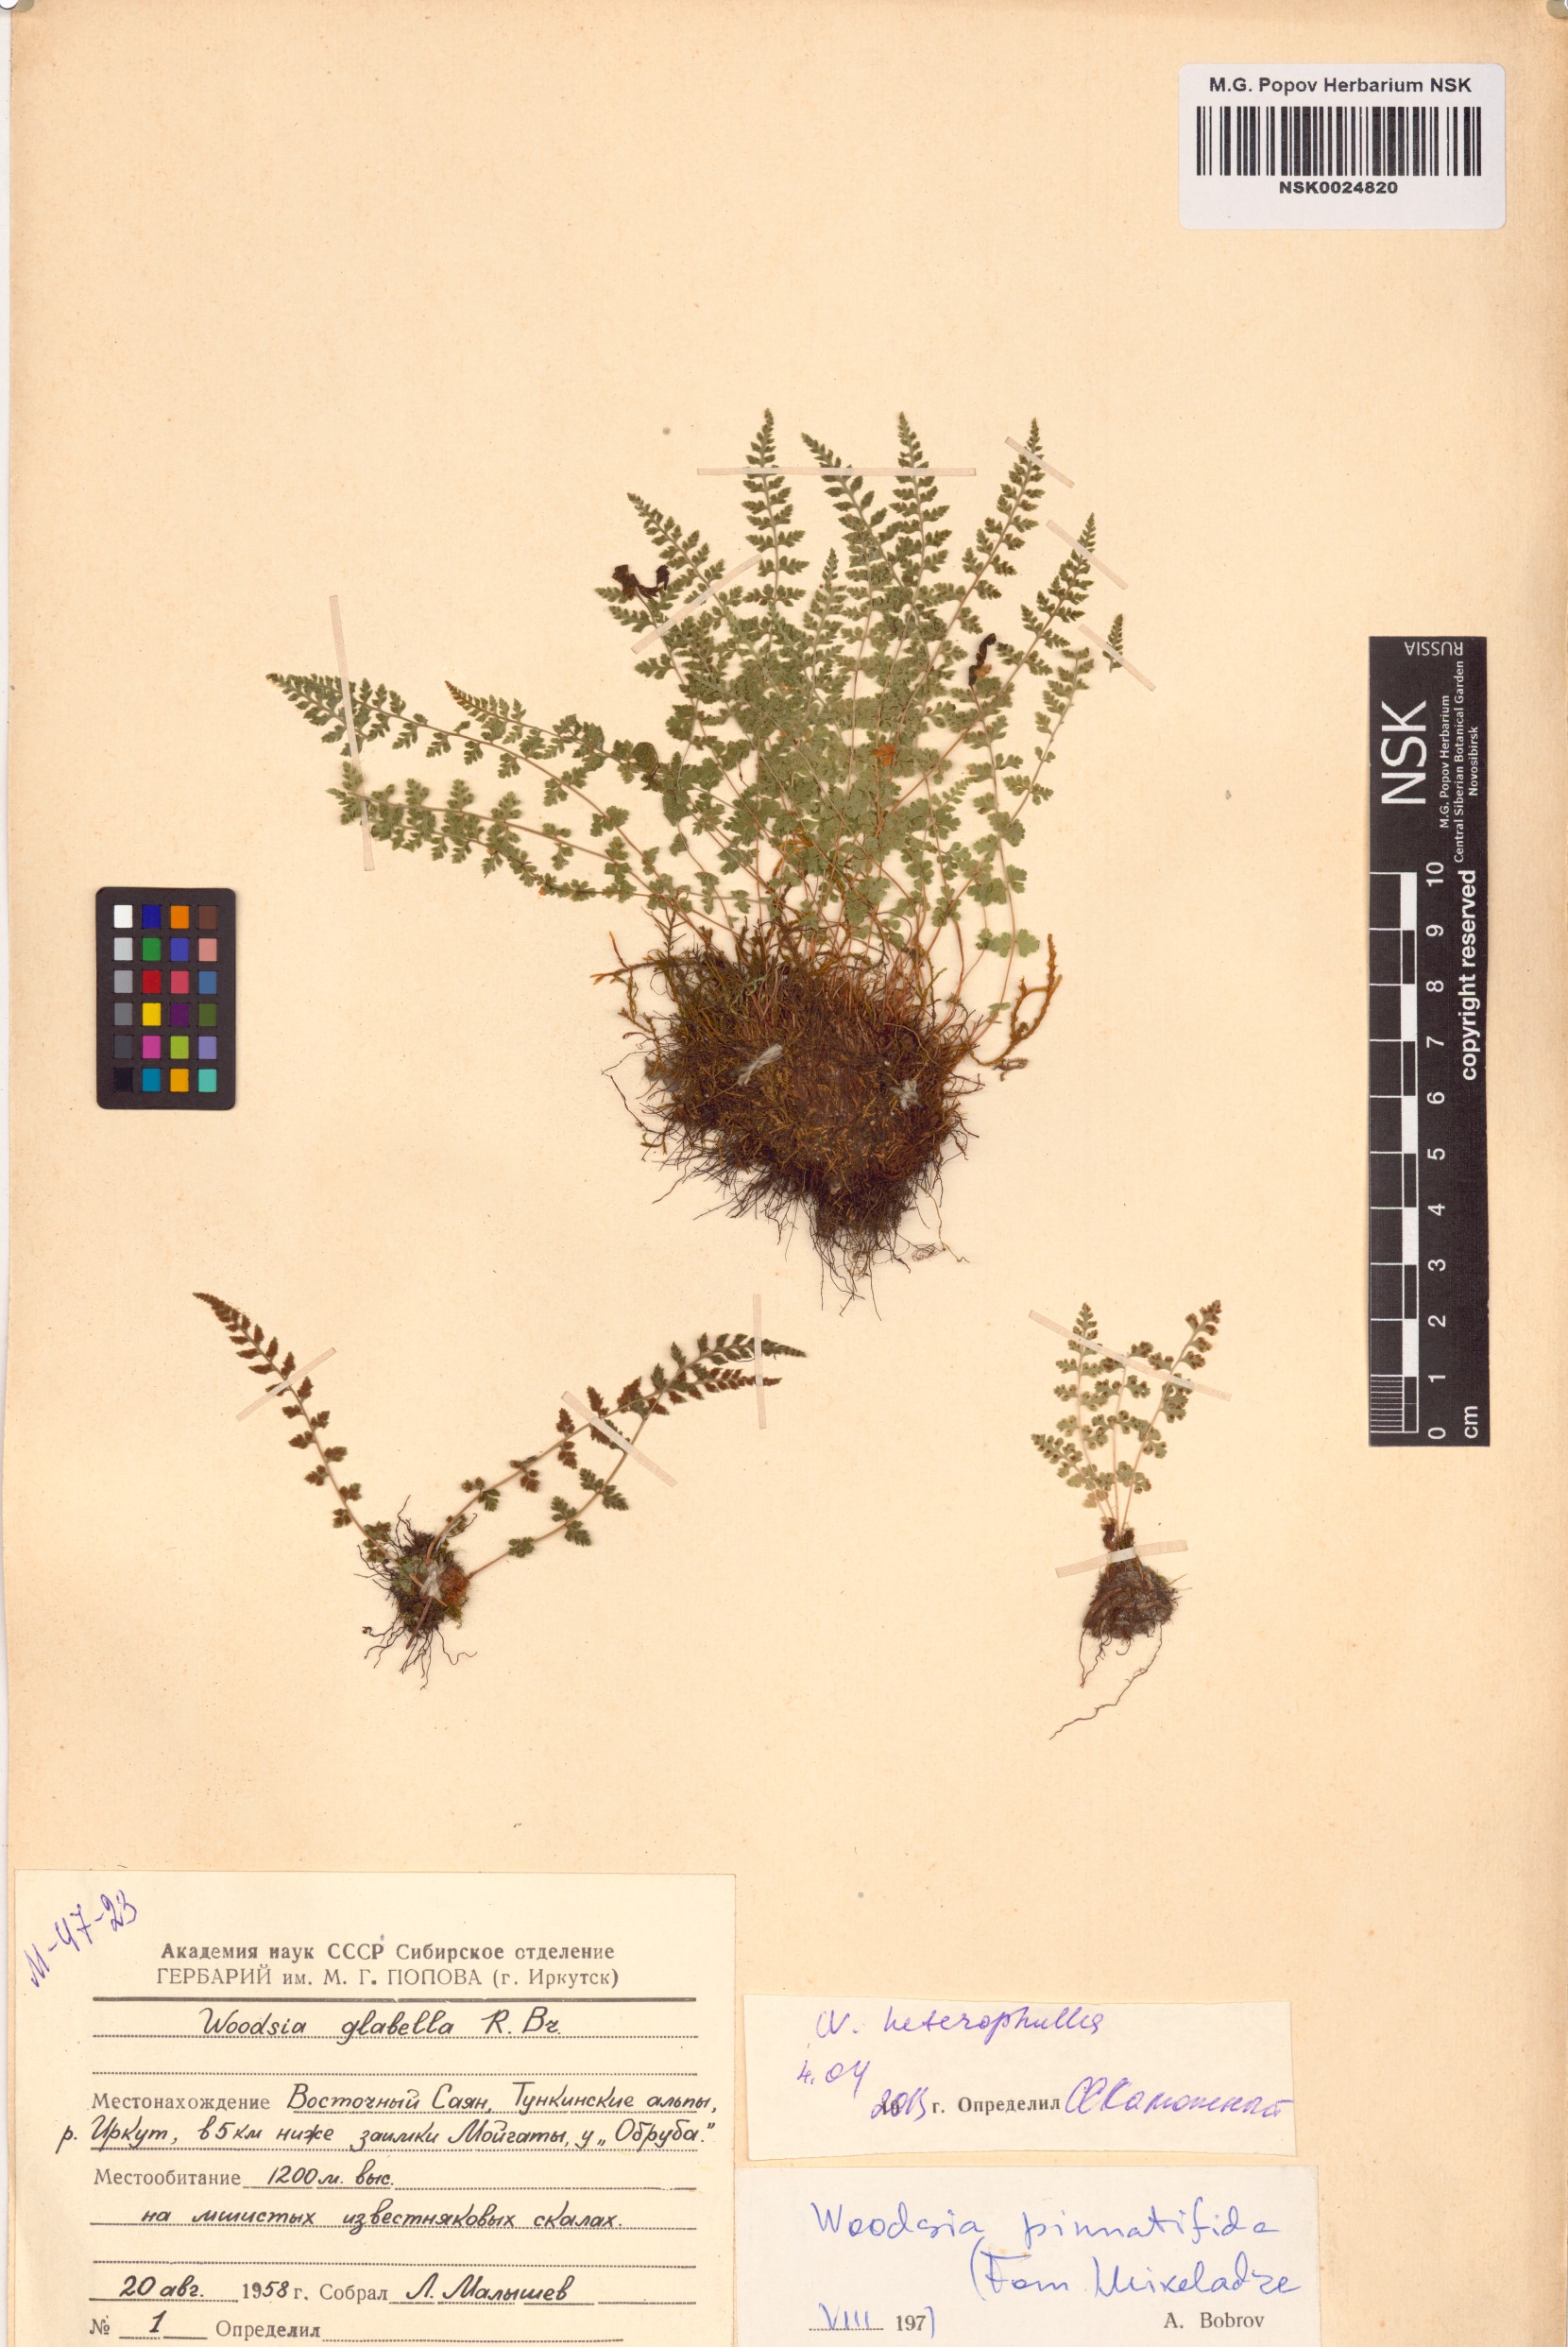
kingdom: Plantae
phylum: Tracheophyta
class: Polypodiopsida
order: Polypodiales
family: Woodsiaceae
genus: Woodsia
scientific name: Woodsia pulchella
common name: Graceful woodsia
